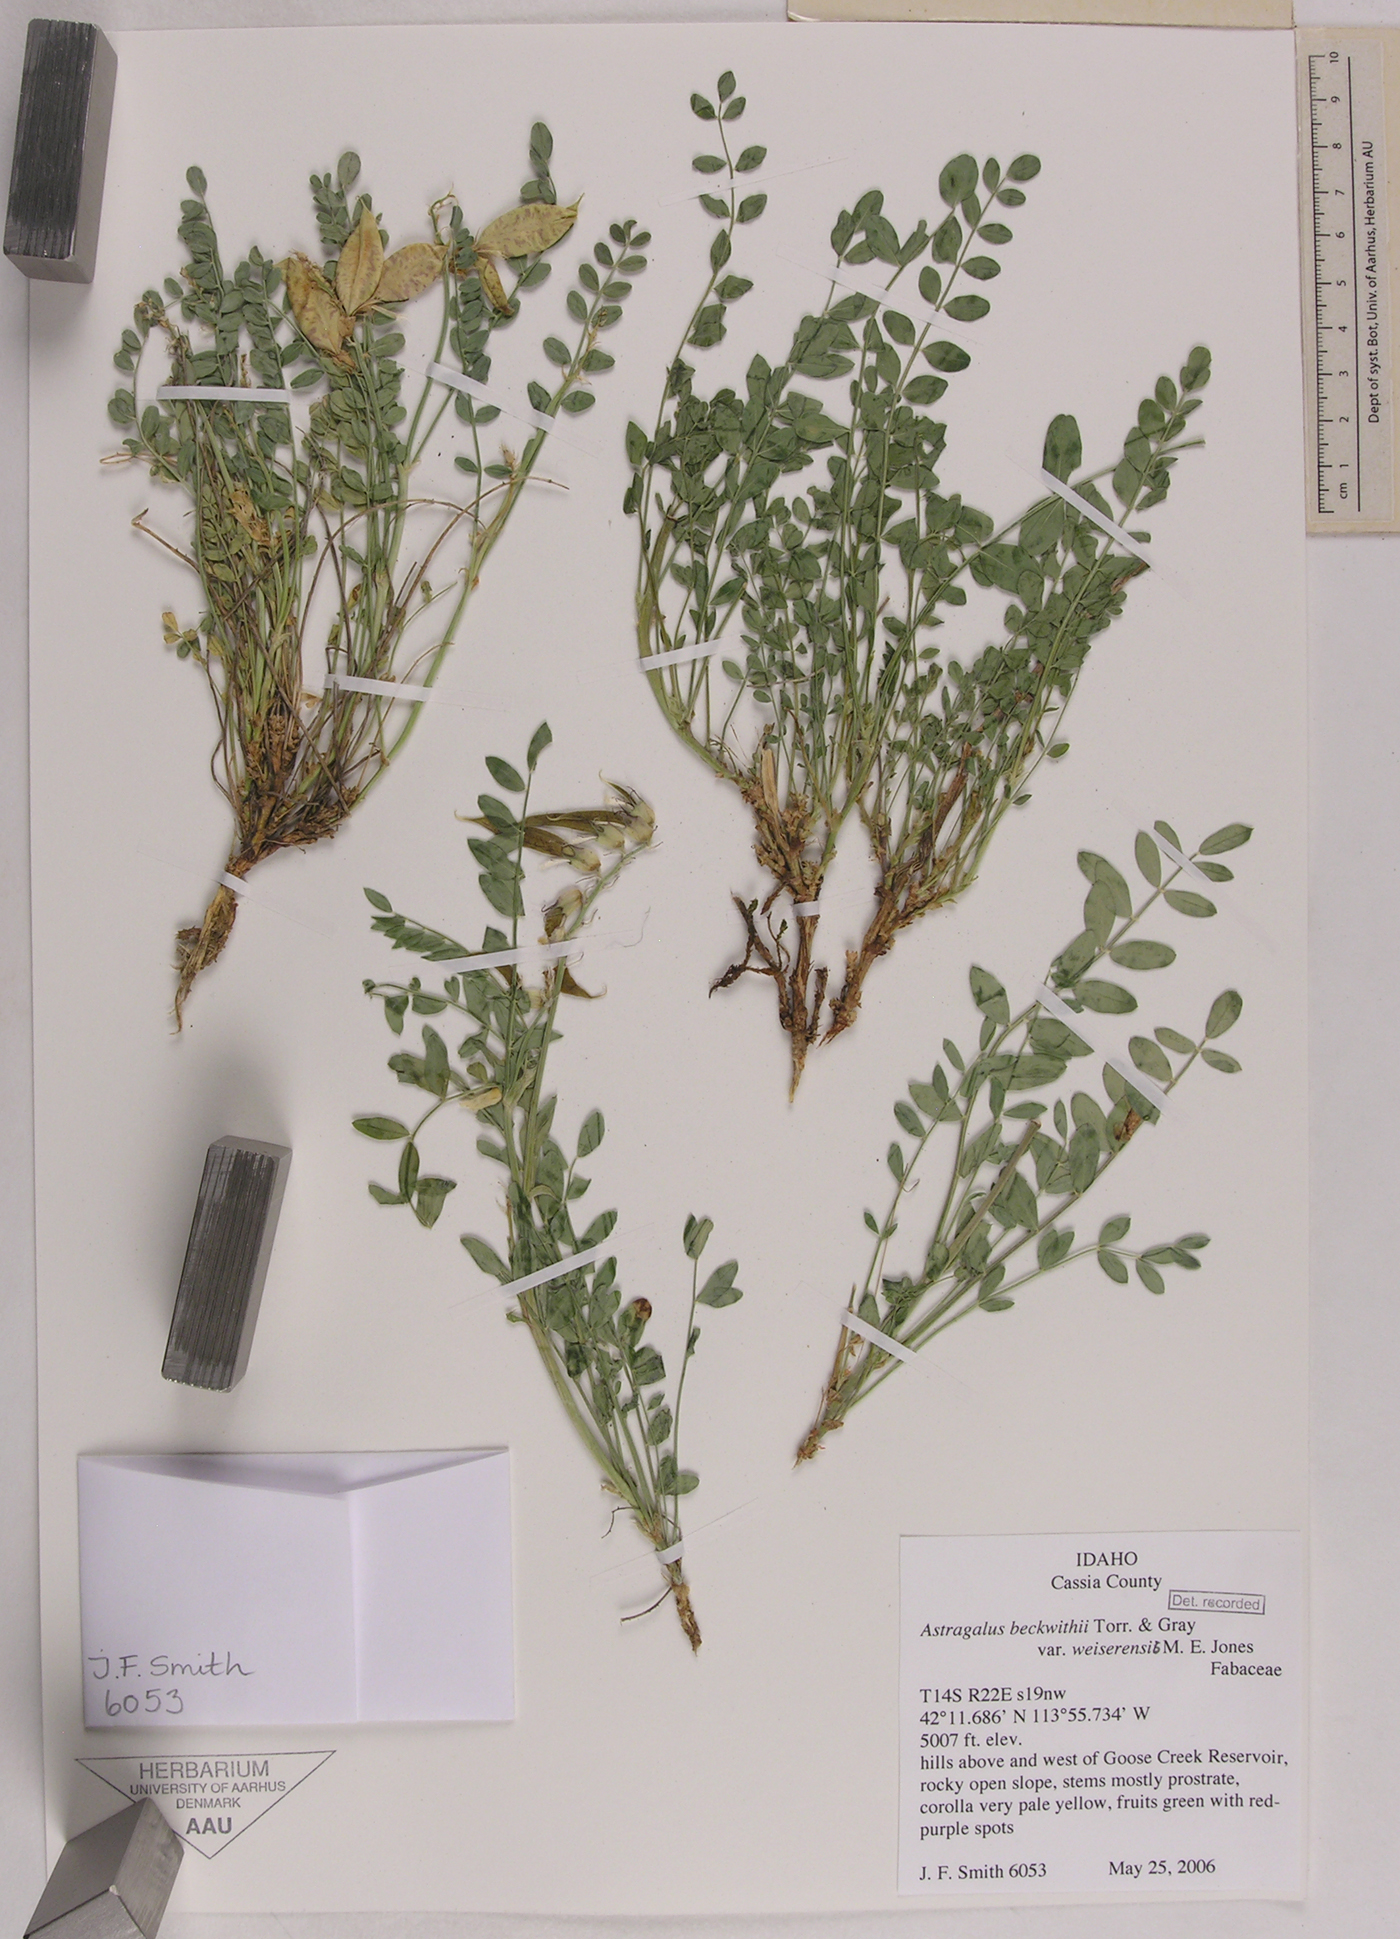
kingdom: Plantae
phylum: Tracheophyta
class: Magnoliopsida
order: Fabales
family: Fabaceae
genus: Astragalus
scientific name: Astragalus beckwithii
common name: Beckwith's milk-vetch
